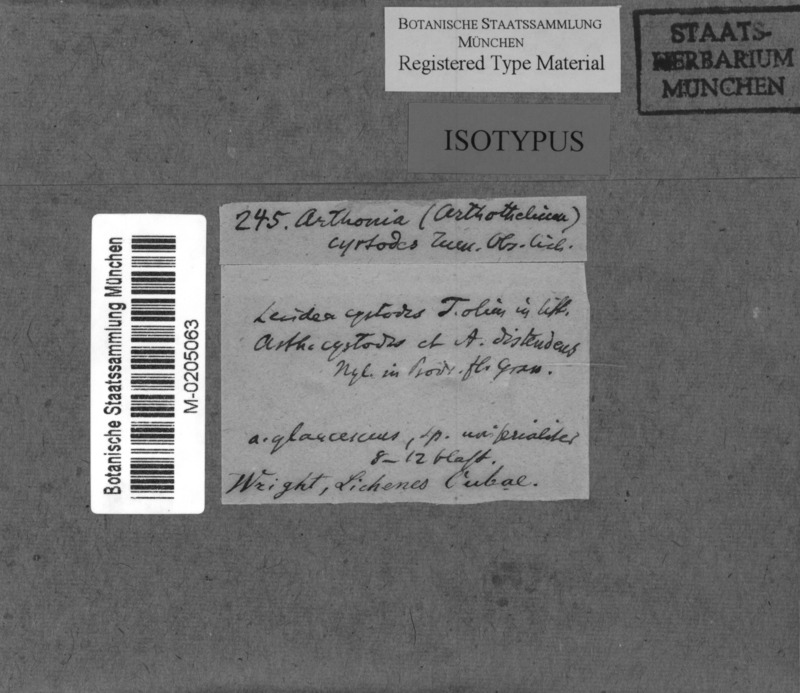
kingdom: Fungi
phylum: Ascomycota
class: Arthoniomycetes
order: Arthoniales
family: Arthoniaceae
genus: Arthothelium
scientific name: Arthothelium cyrtodes
